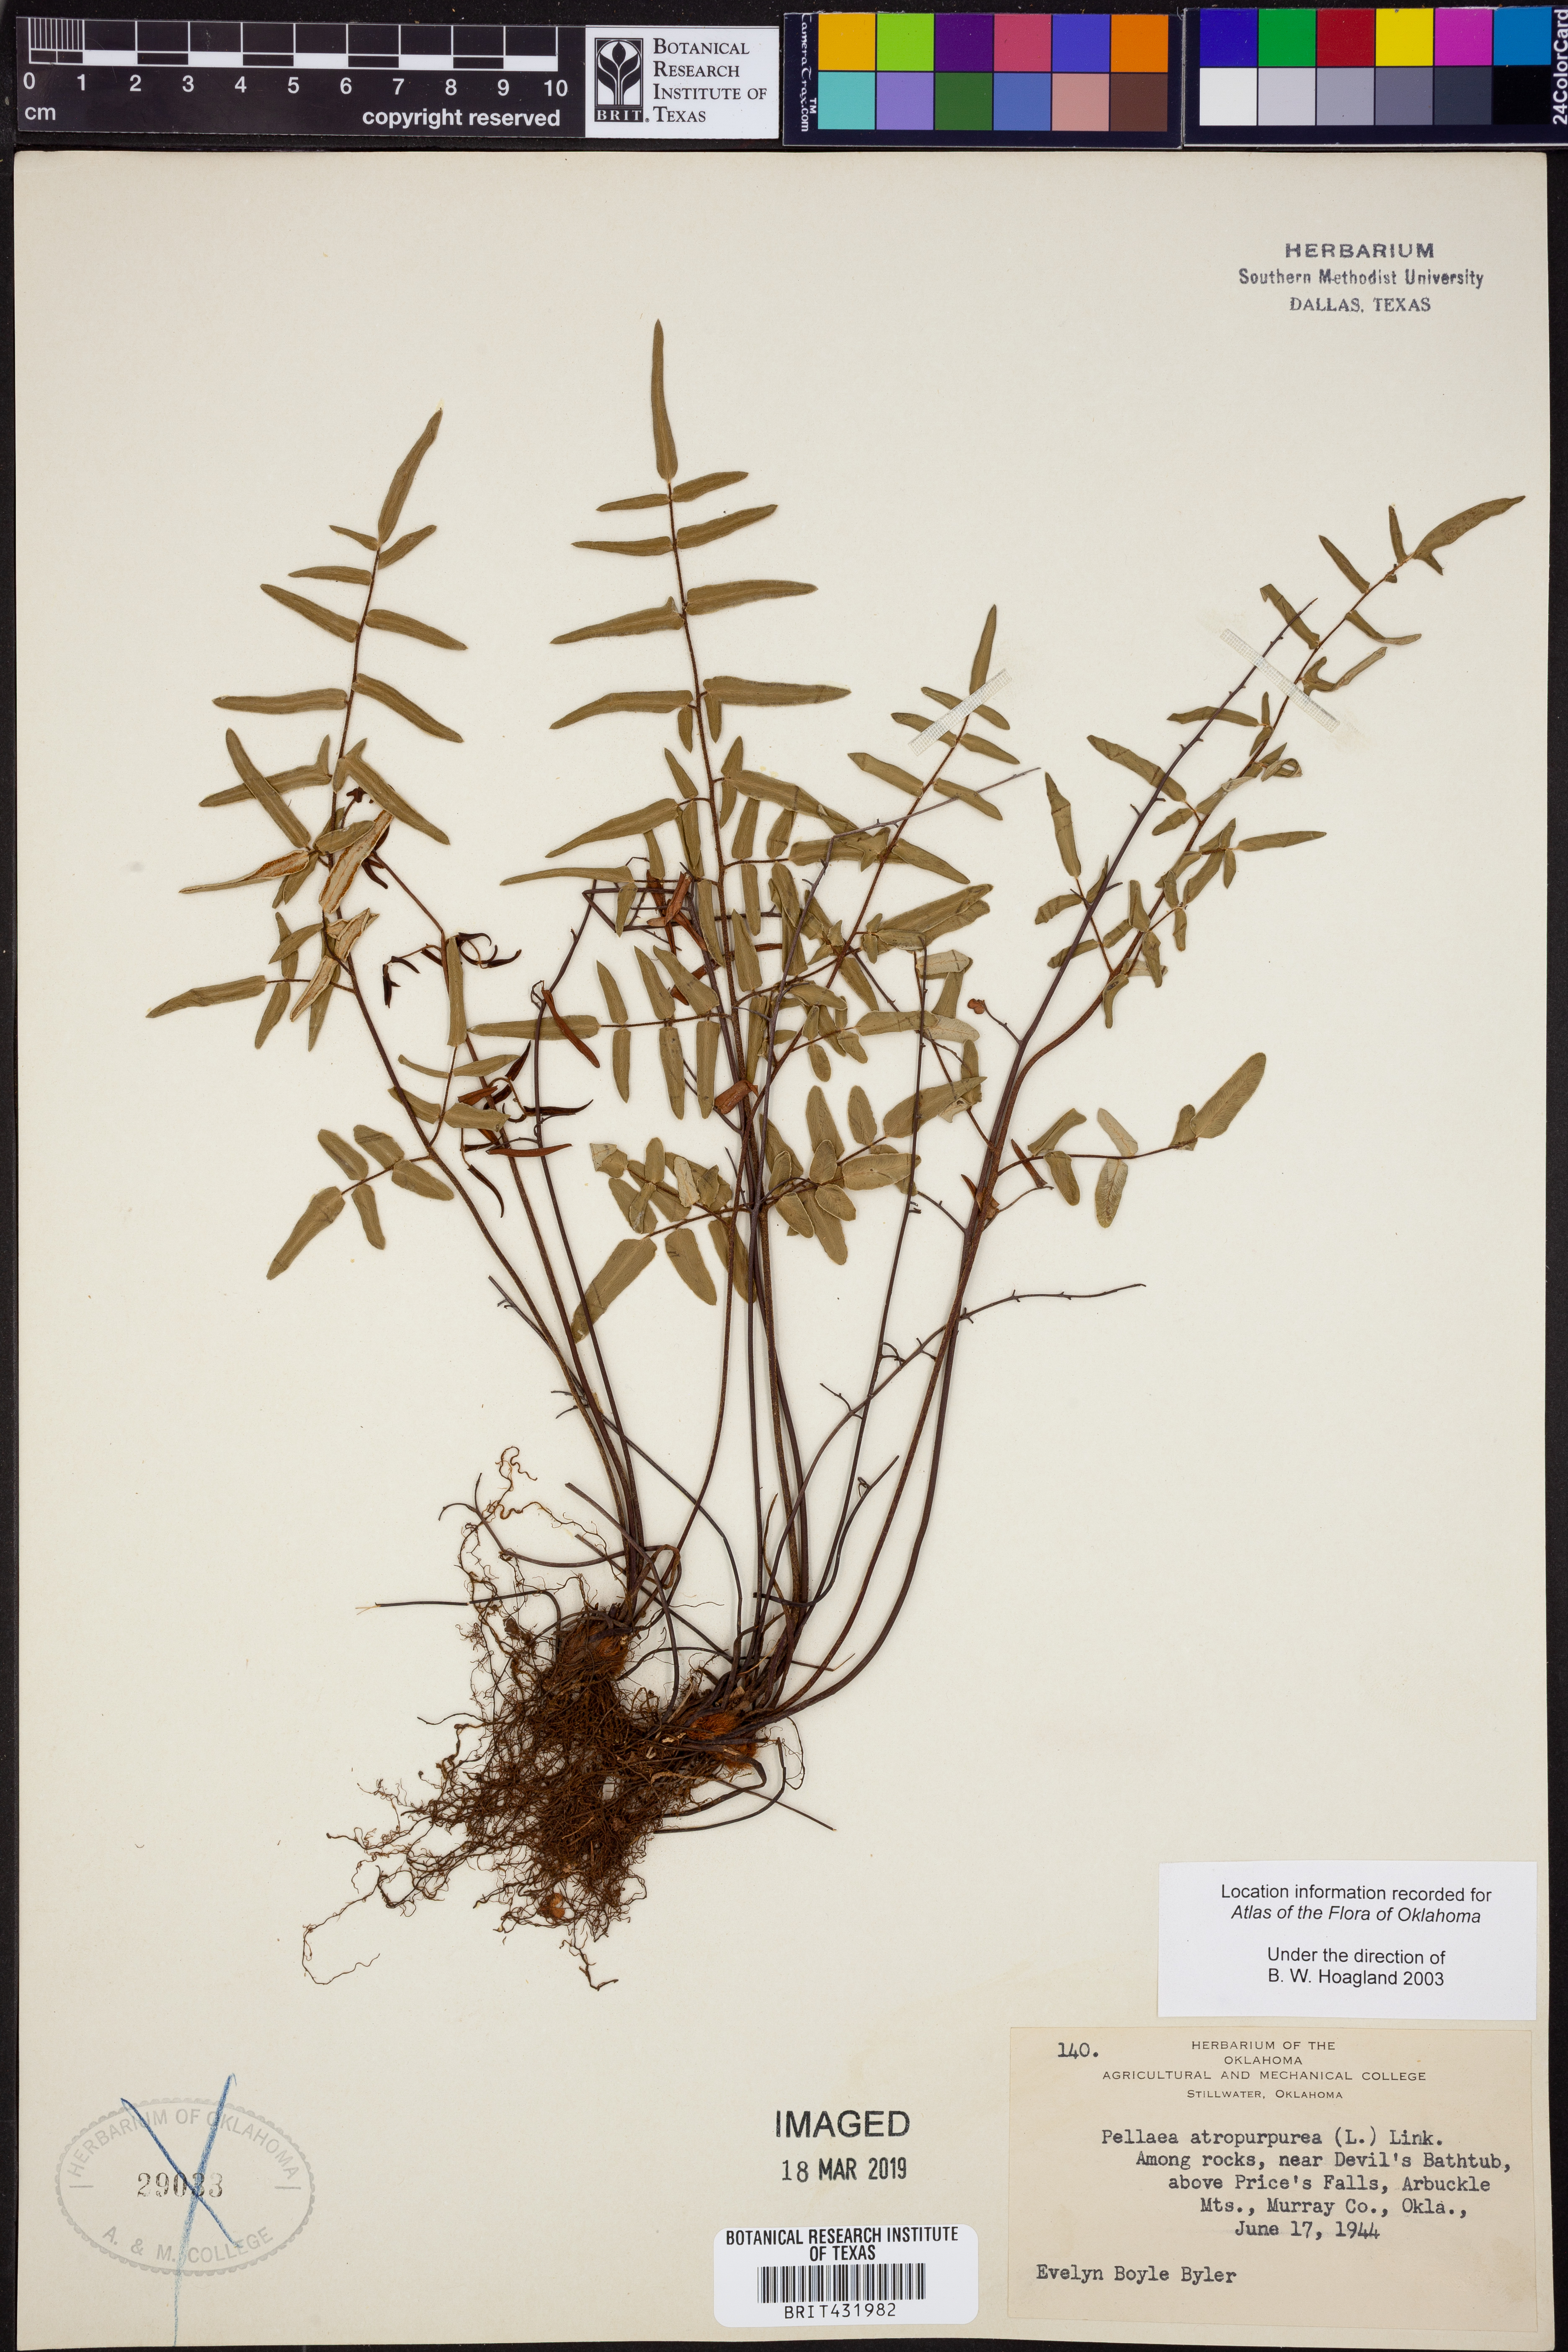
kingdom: Plantae
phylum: Tracheophyta
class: Polypodiopsida
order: Polypodiales
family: Pteridaceae
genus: Pellaea
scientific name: Pellaea atropurpurea
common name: Hairy cliffbrake
